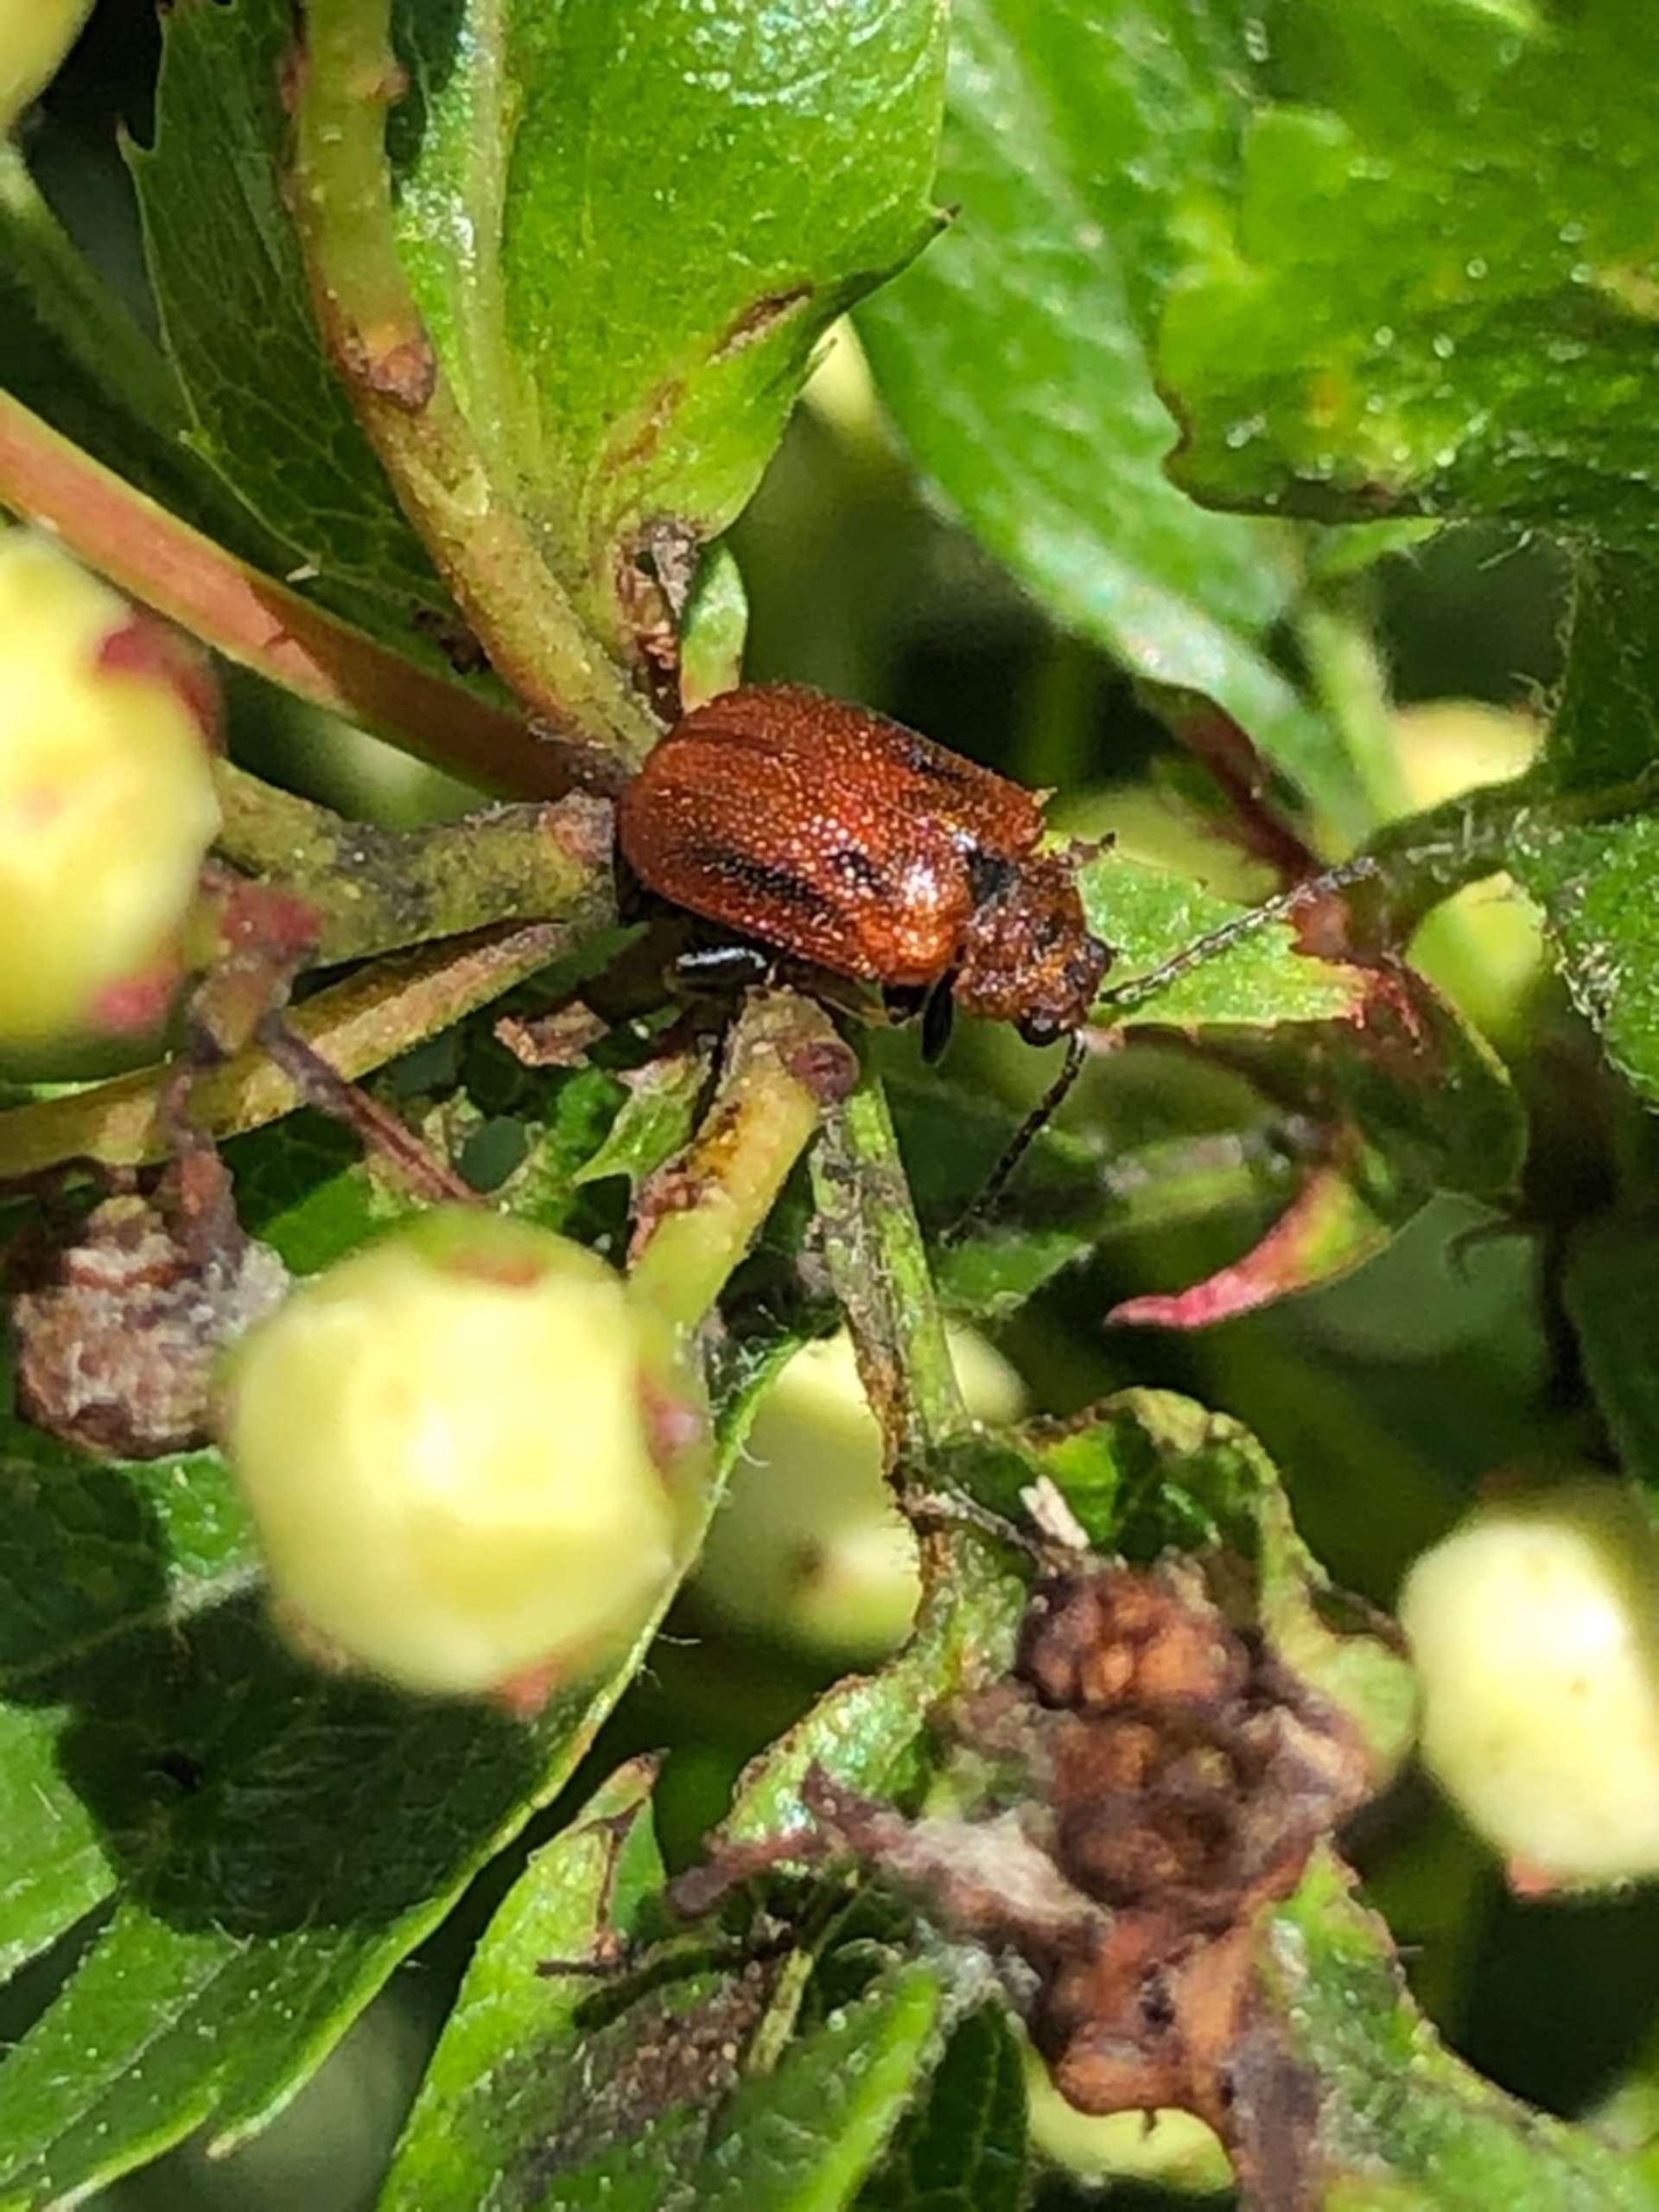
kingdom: Animalia
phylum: Arthropoda
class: Insecta
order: Coleoptera
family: Chrysomelidae
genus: Lochmaea
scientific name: Lochmaea crataegi
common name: Tjørnebladbille
